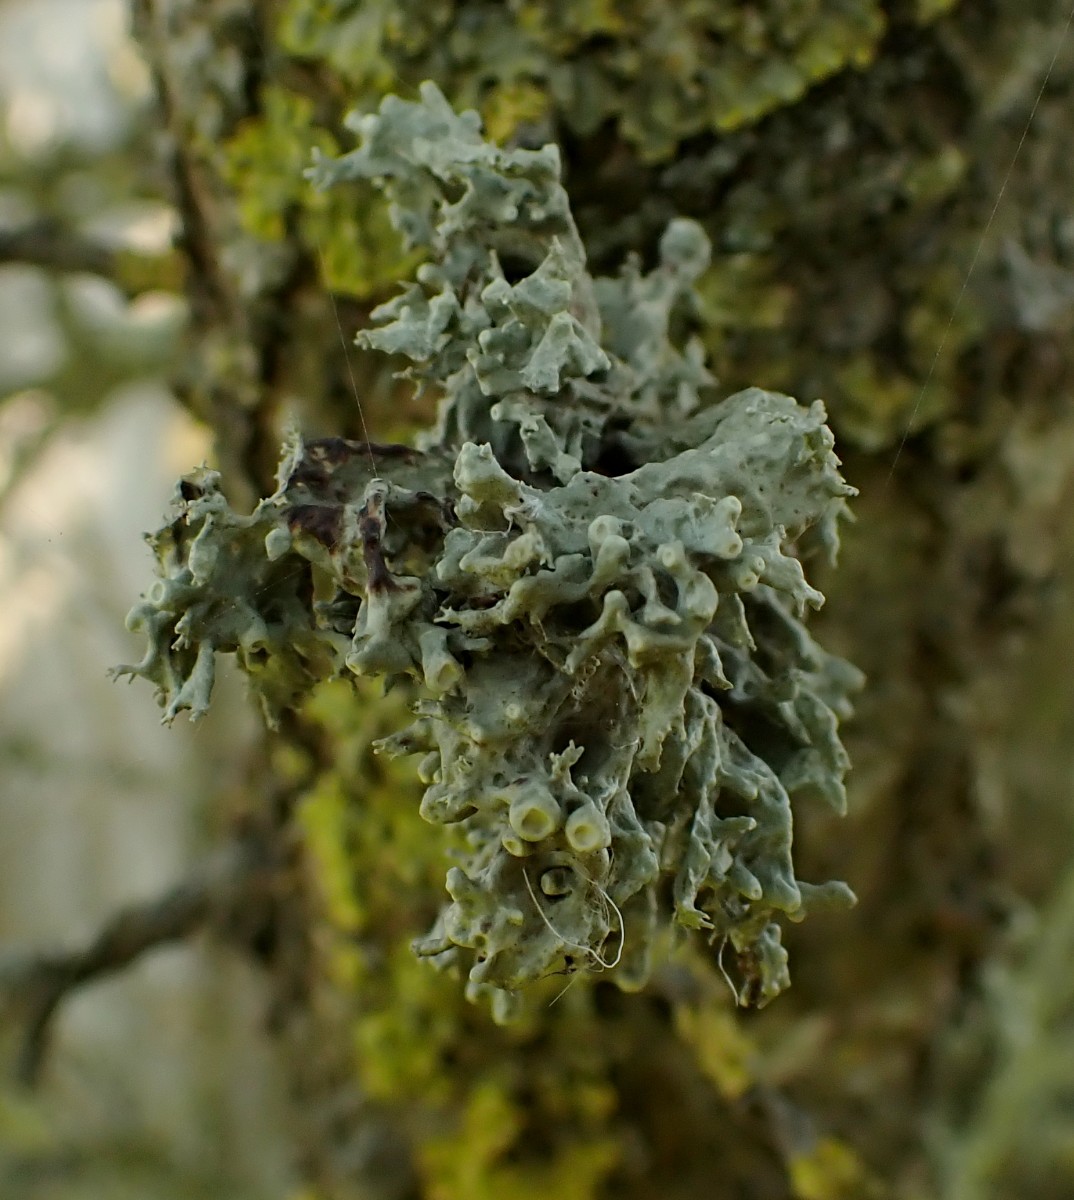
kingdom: Fungi
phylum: Ascomycota
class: Lecanoromycetes
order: Lecanorales
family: Ramalinaceae
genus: Ramalina
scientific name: Ramalina fastigiata
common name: tue-grenlav
